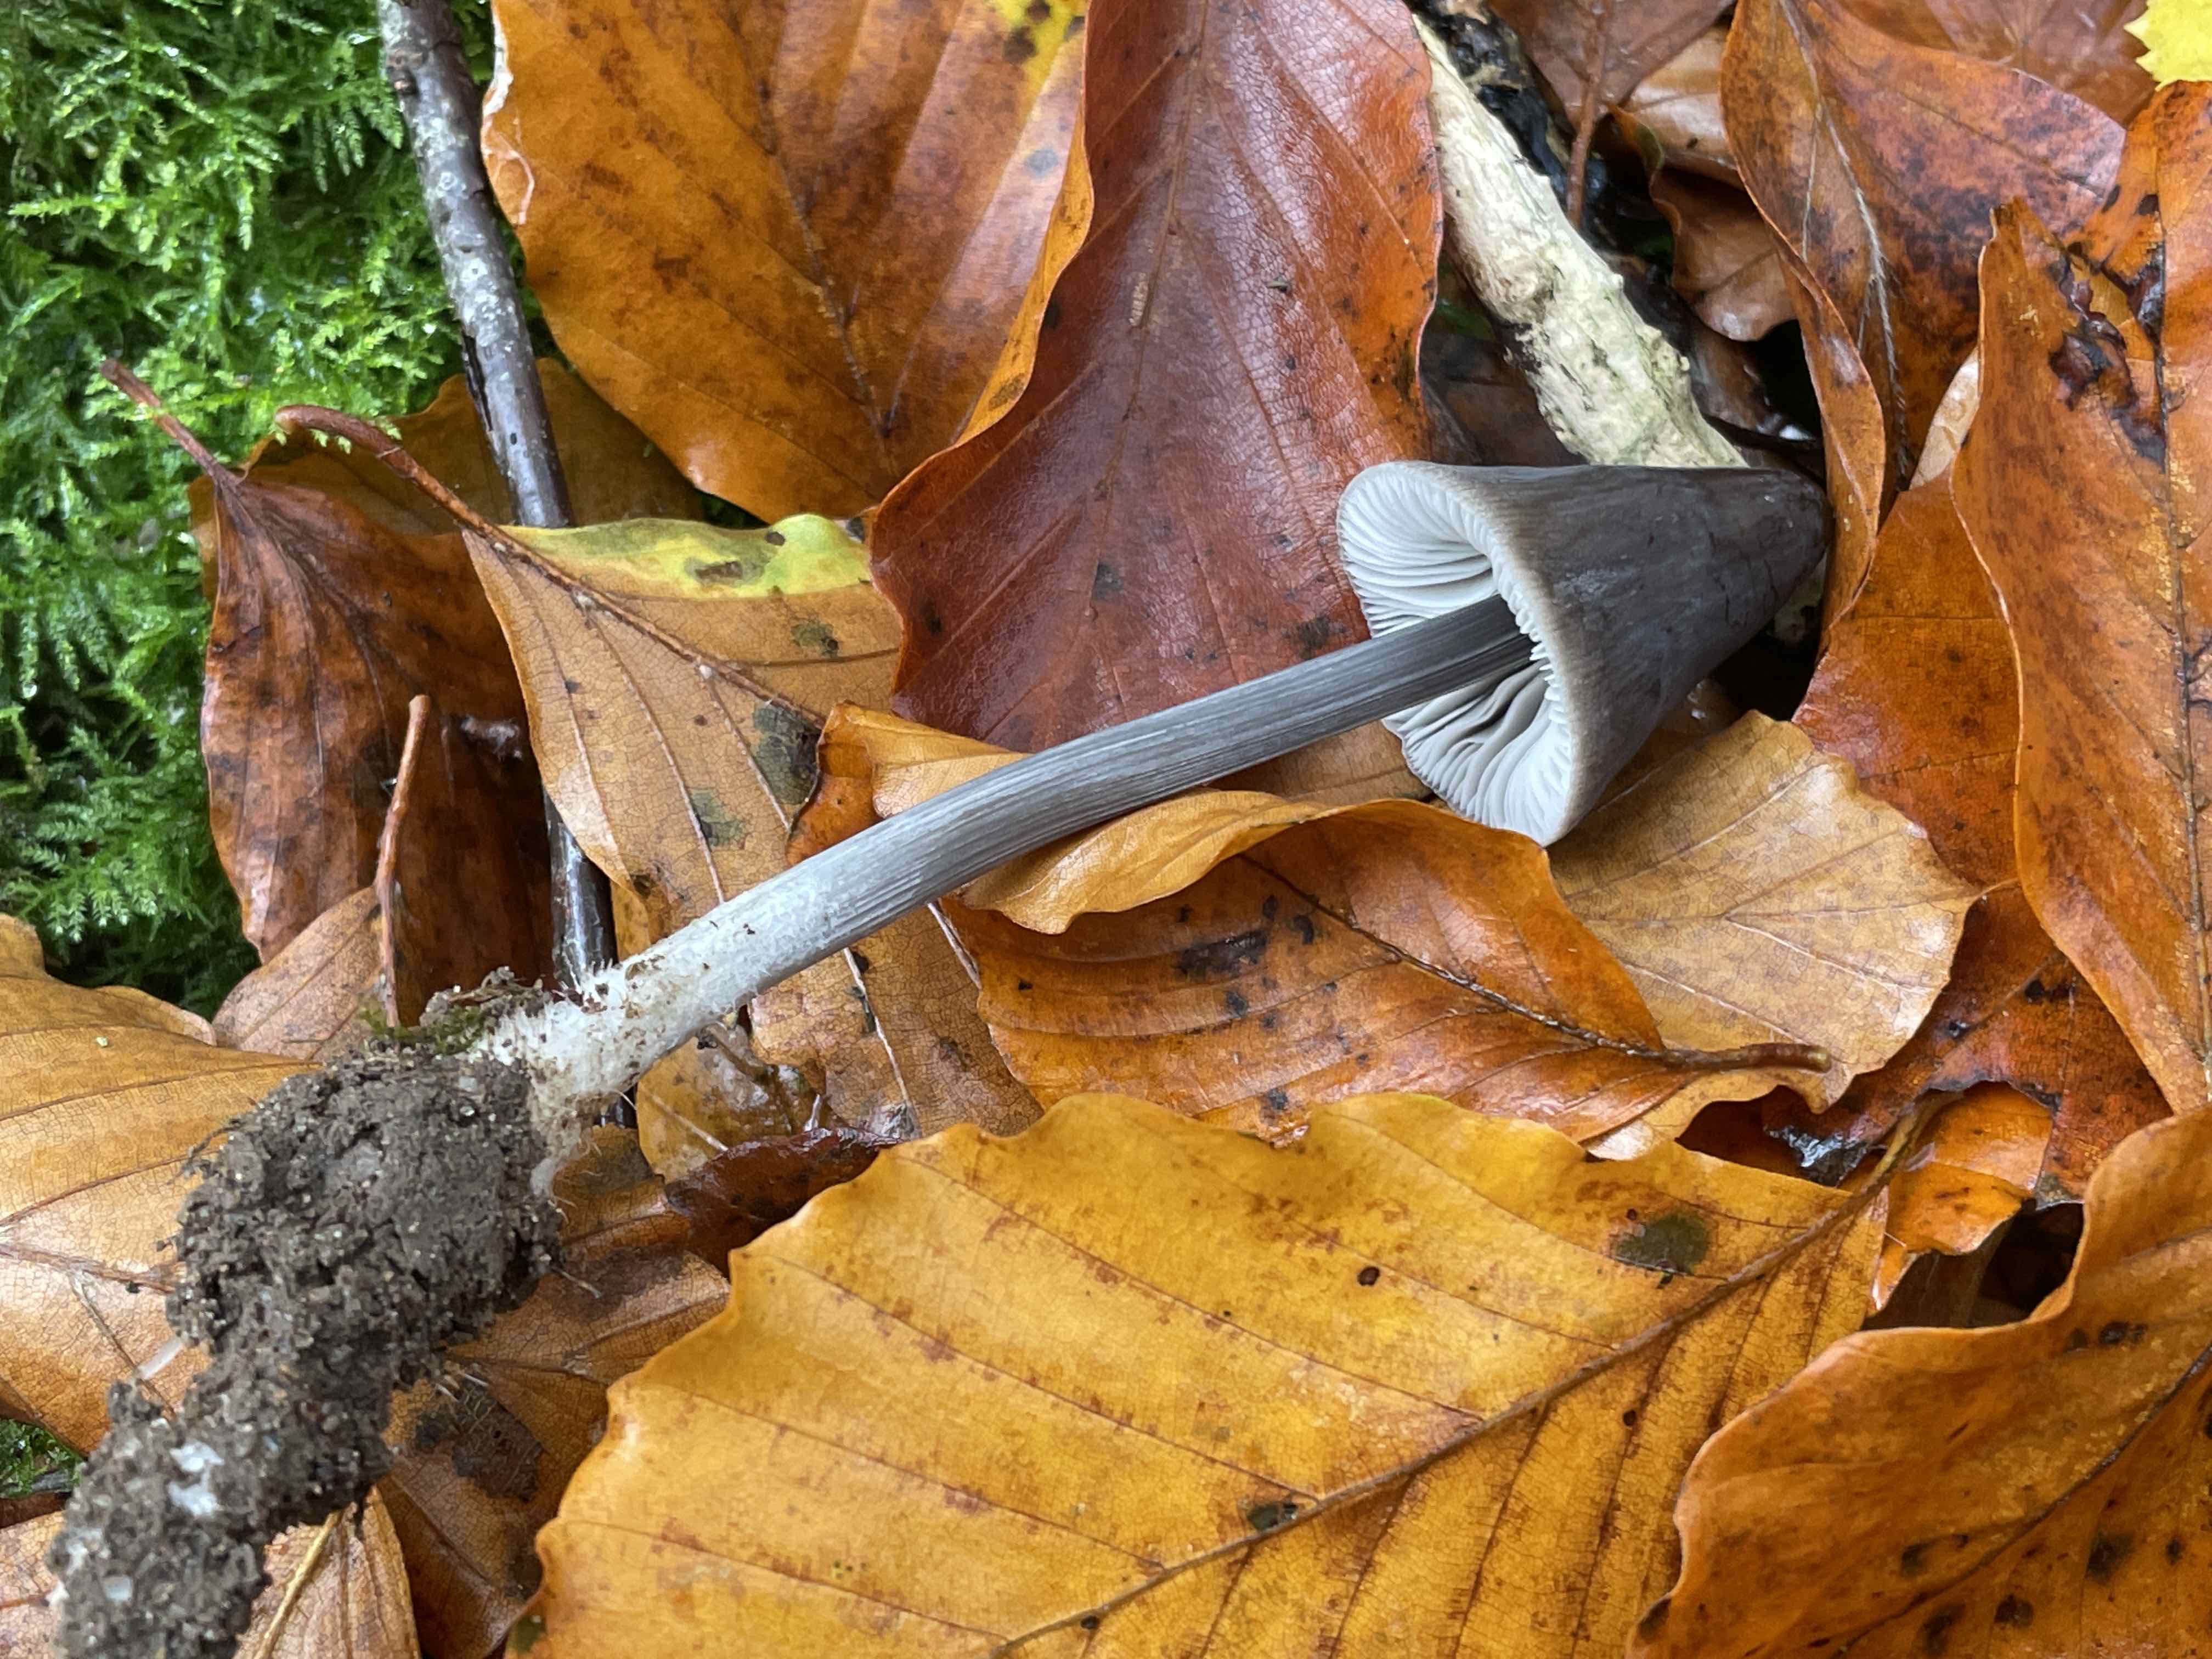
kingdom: Fungi
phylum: Basidiomycota
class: Agaricomycetes
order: Agaricales
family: Mycenaceae
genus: Mycena
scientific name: Mycena polygramma
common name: mangestribet huesvamp
